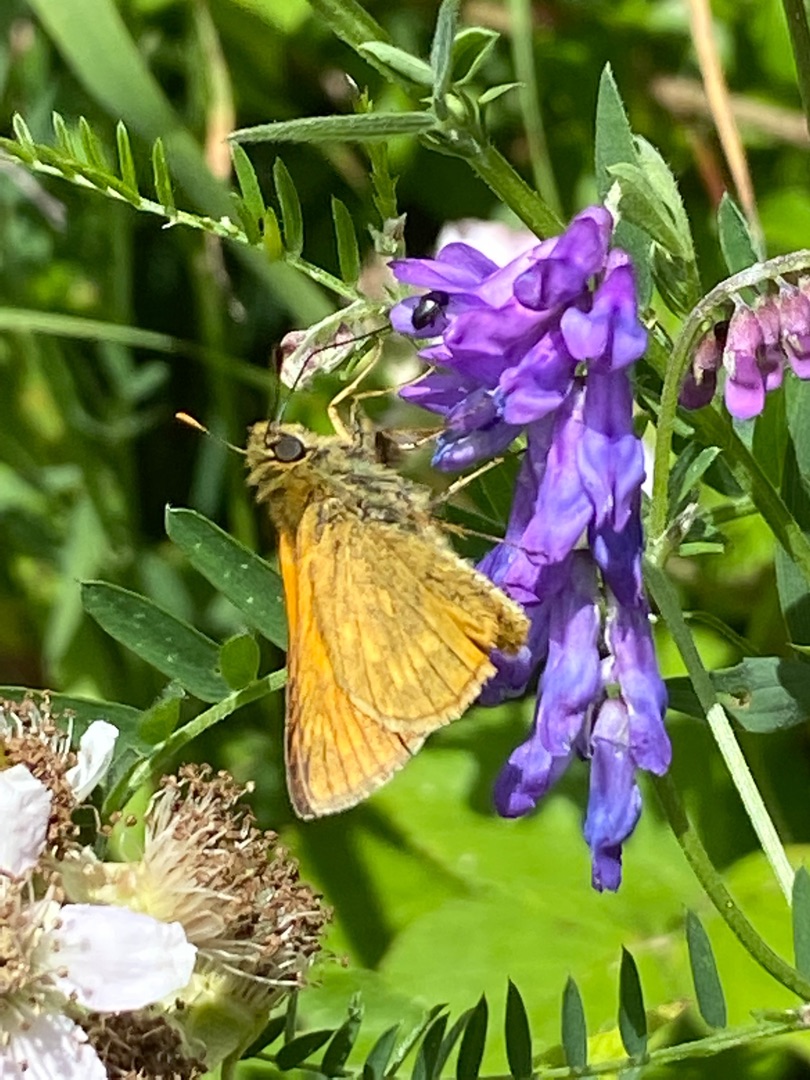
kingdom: Animalia
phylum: Arthropoda
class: Insecta
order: Lepidoptera
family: Hesperiidae
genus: Ochlodes
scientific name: Ochlodes venata
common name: Stor bredpande
